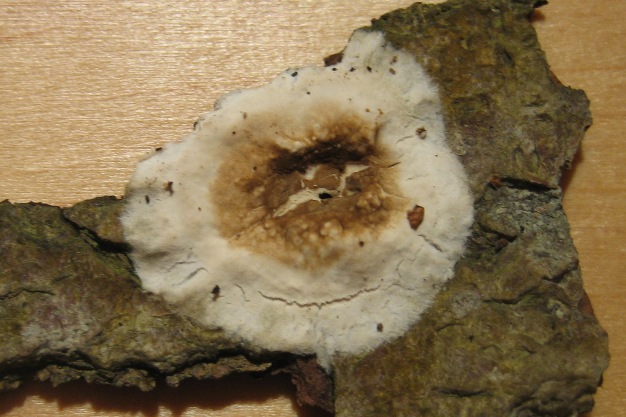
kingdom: Fungi
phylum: Basidiomycota
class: Agaricomycetes
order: Boletales
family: Coniophoraceae
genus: Coniophora
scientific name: Coniophora puteana
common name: gul tømmersvamp
